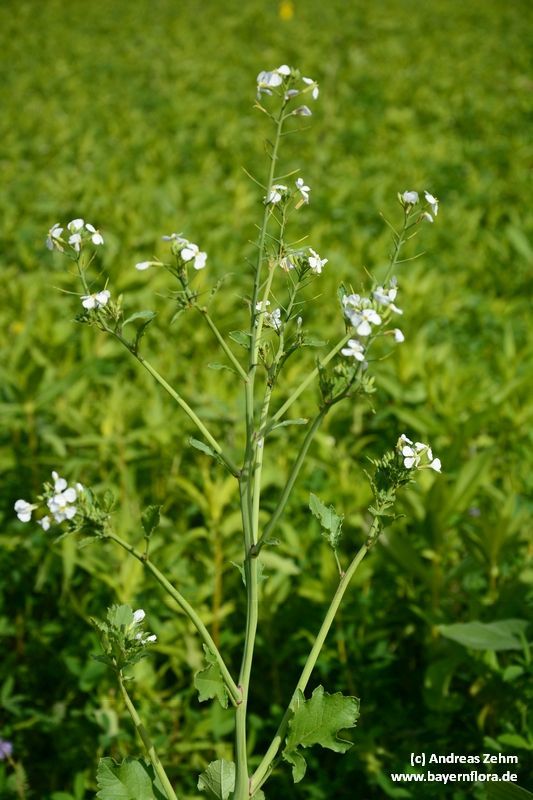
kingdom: Plantae
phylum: Tracheophyta
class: Magnoliopsida
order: Brassicales
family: Brassicaceae
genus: Raphanus
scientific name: Raphanus sativus
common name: Cultivated radish
